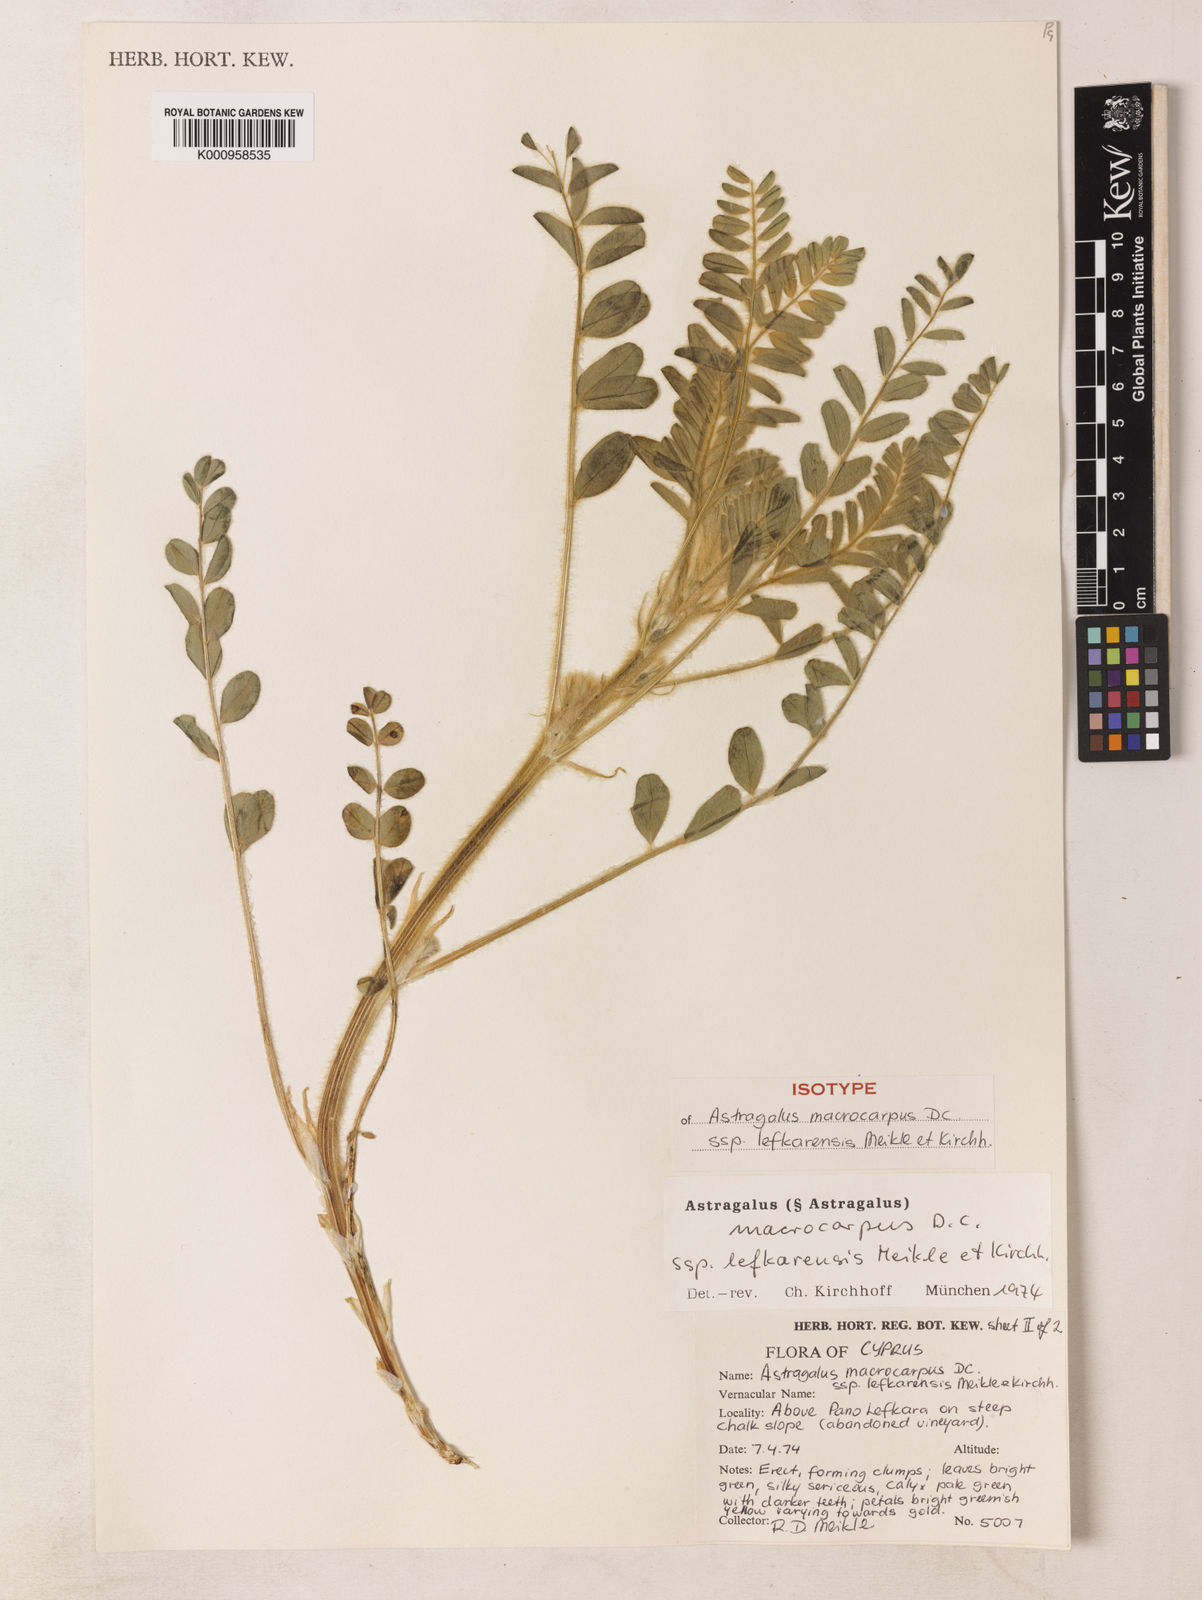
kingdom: Plantae
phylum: Tracheophyta
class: Magnoliopsida
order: Fabales
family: Fabaceae
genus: Astragalus
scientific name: Astragalus macrocarpus
